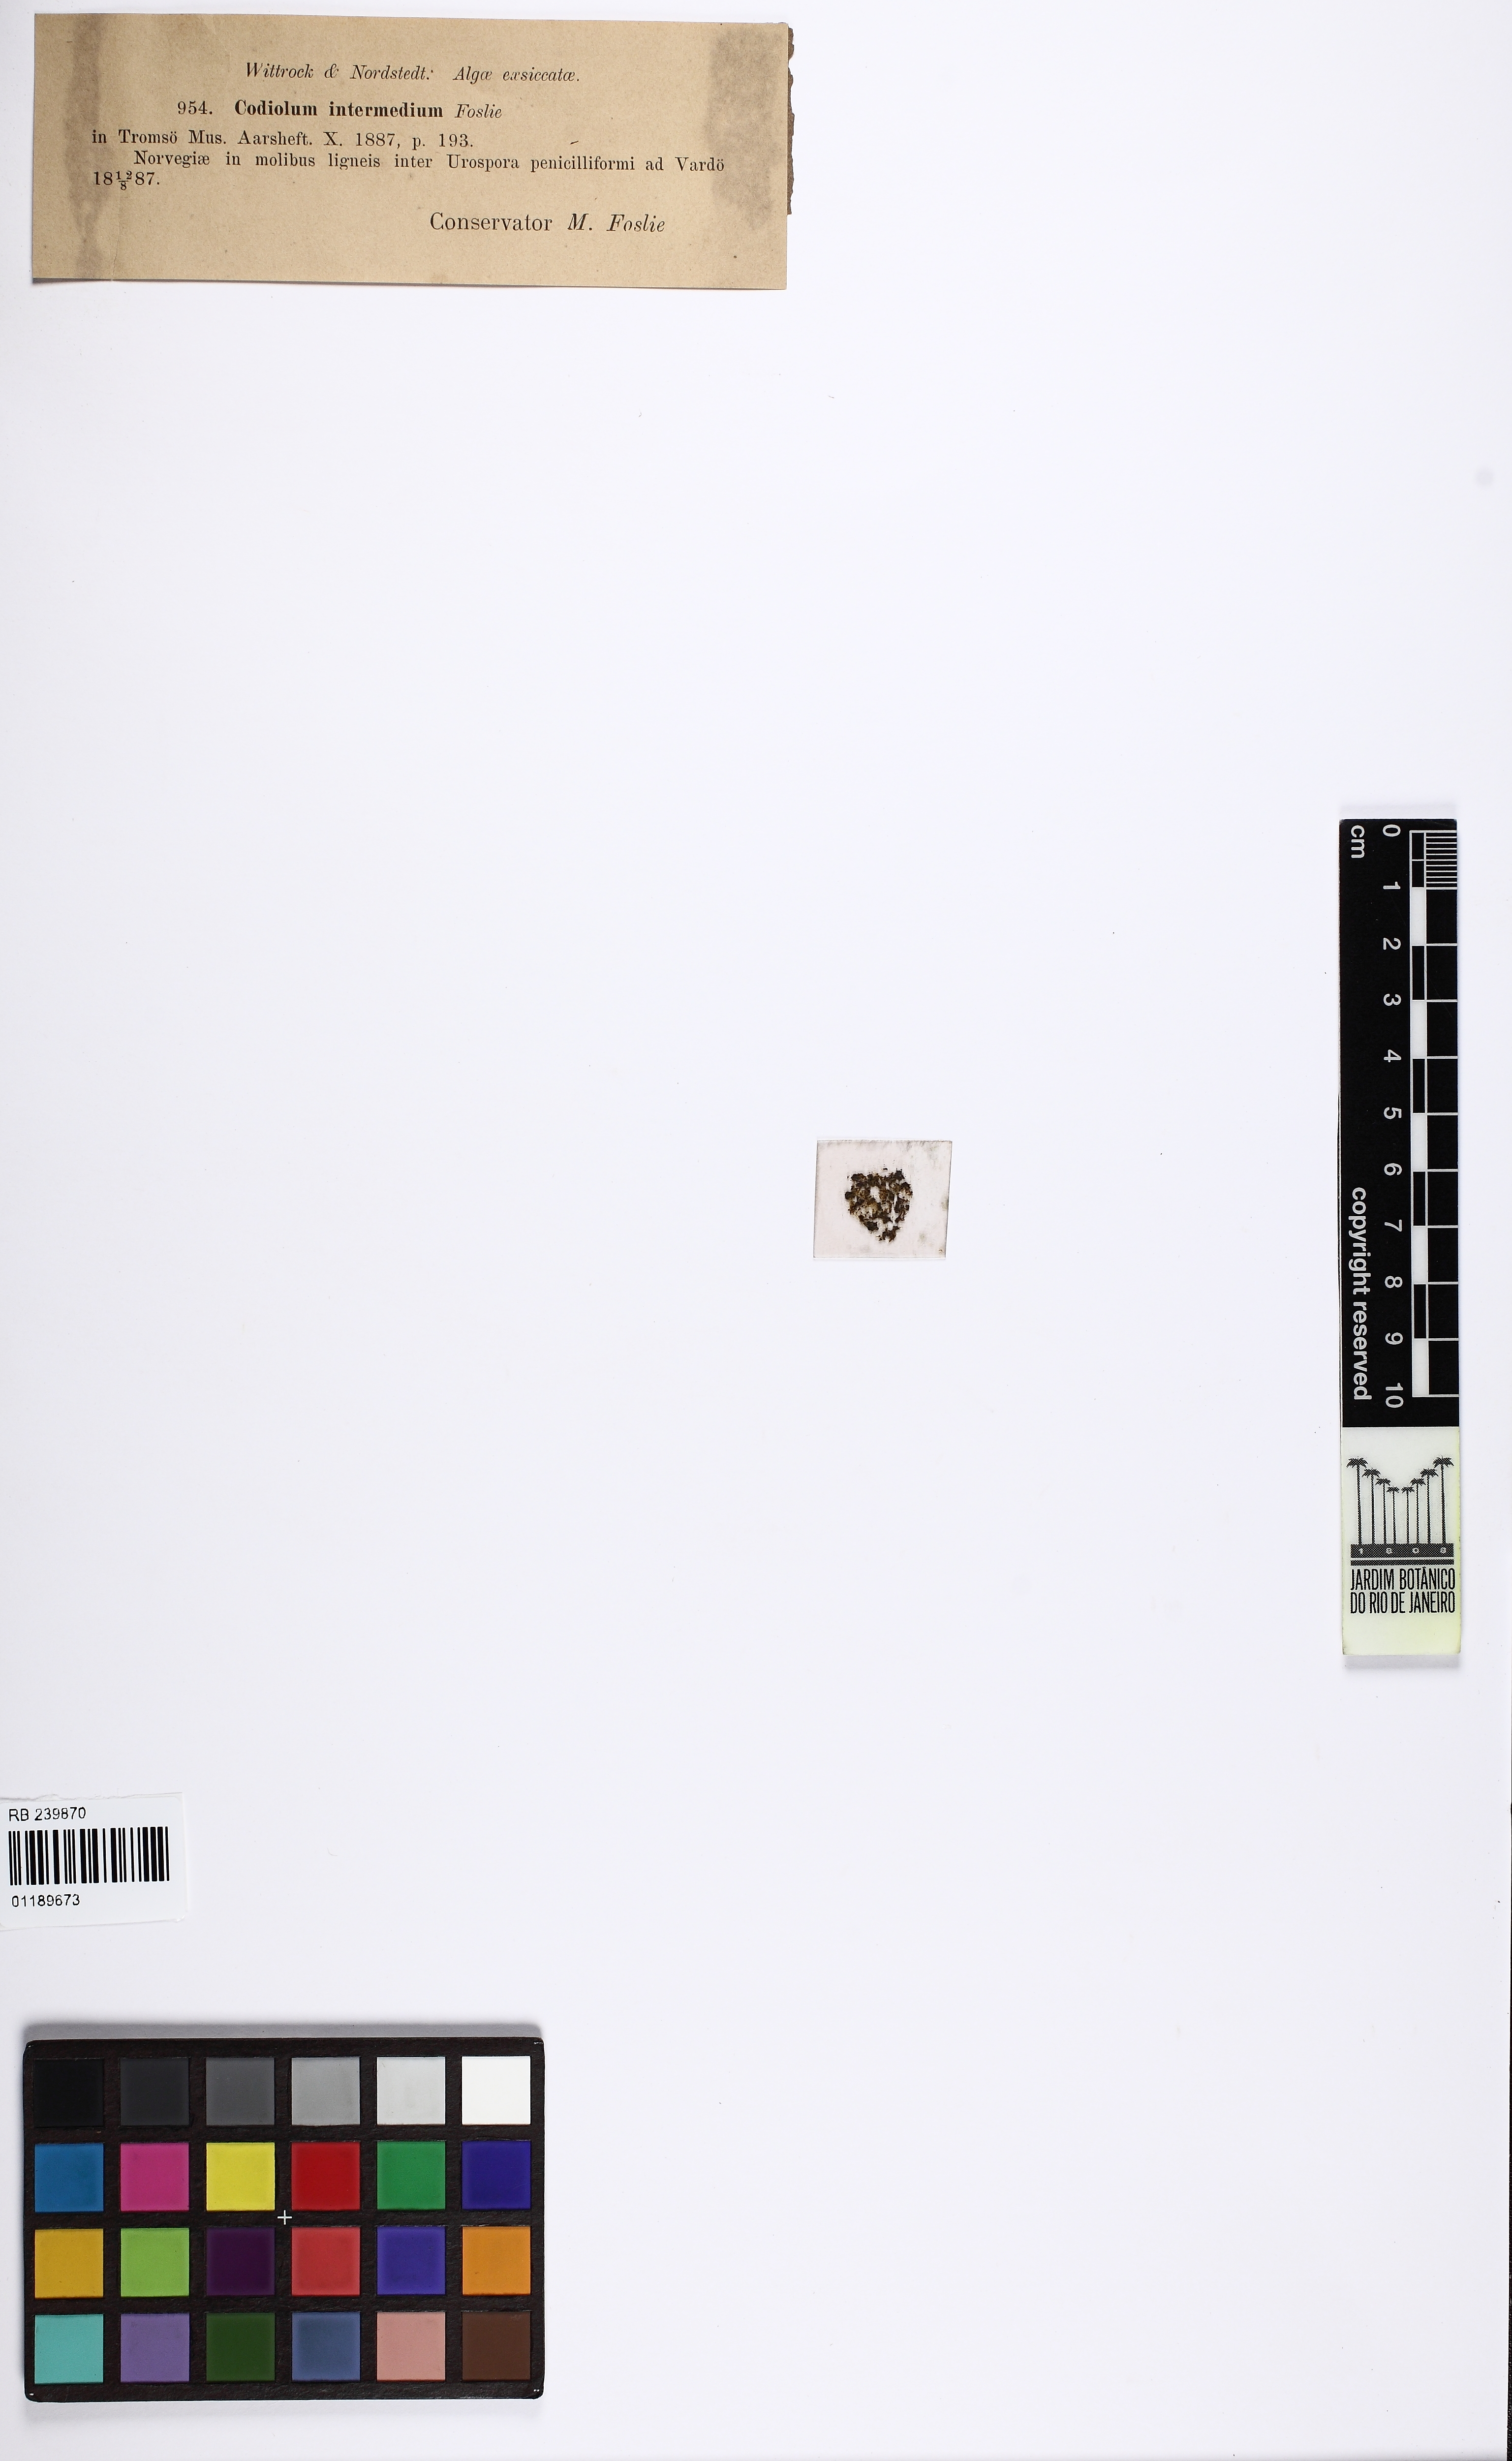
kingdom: Plantae
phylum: Chlorophyta
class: Ulvophyceae
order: Ulotrichales
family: Ulotrichaceae
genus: Codiolum
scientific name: Codiolum intermedium
